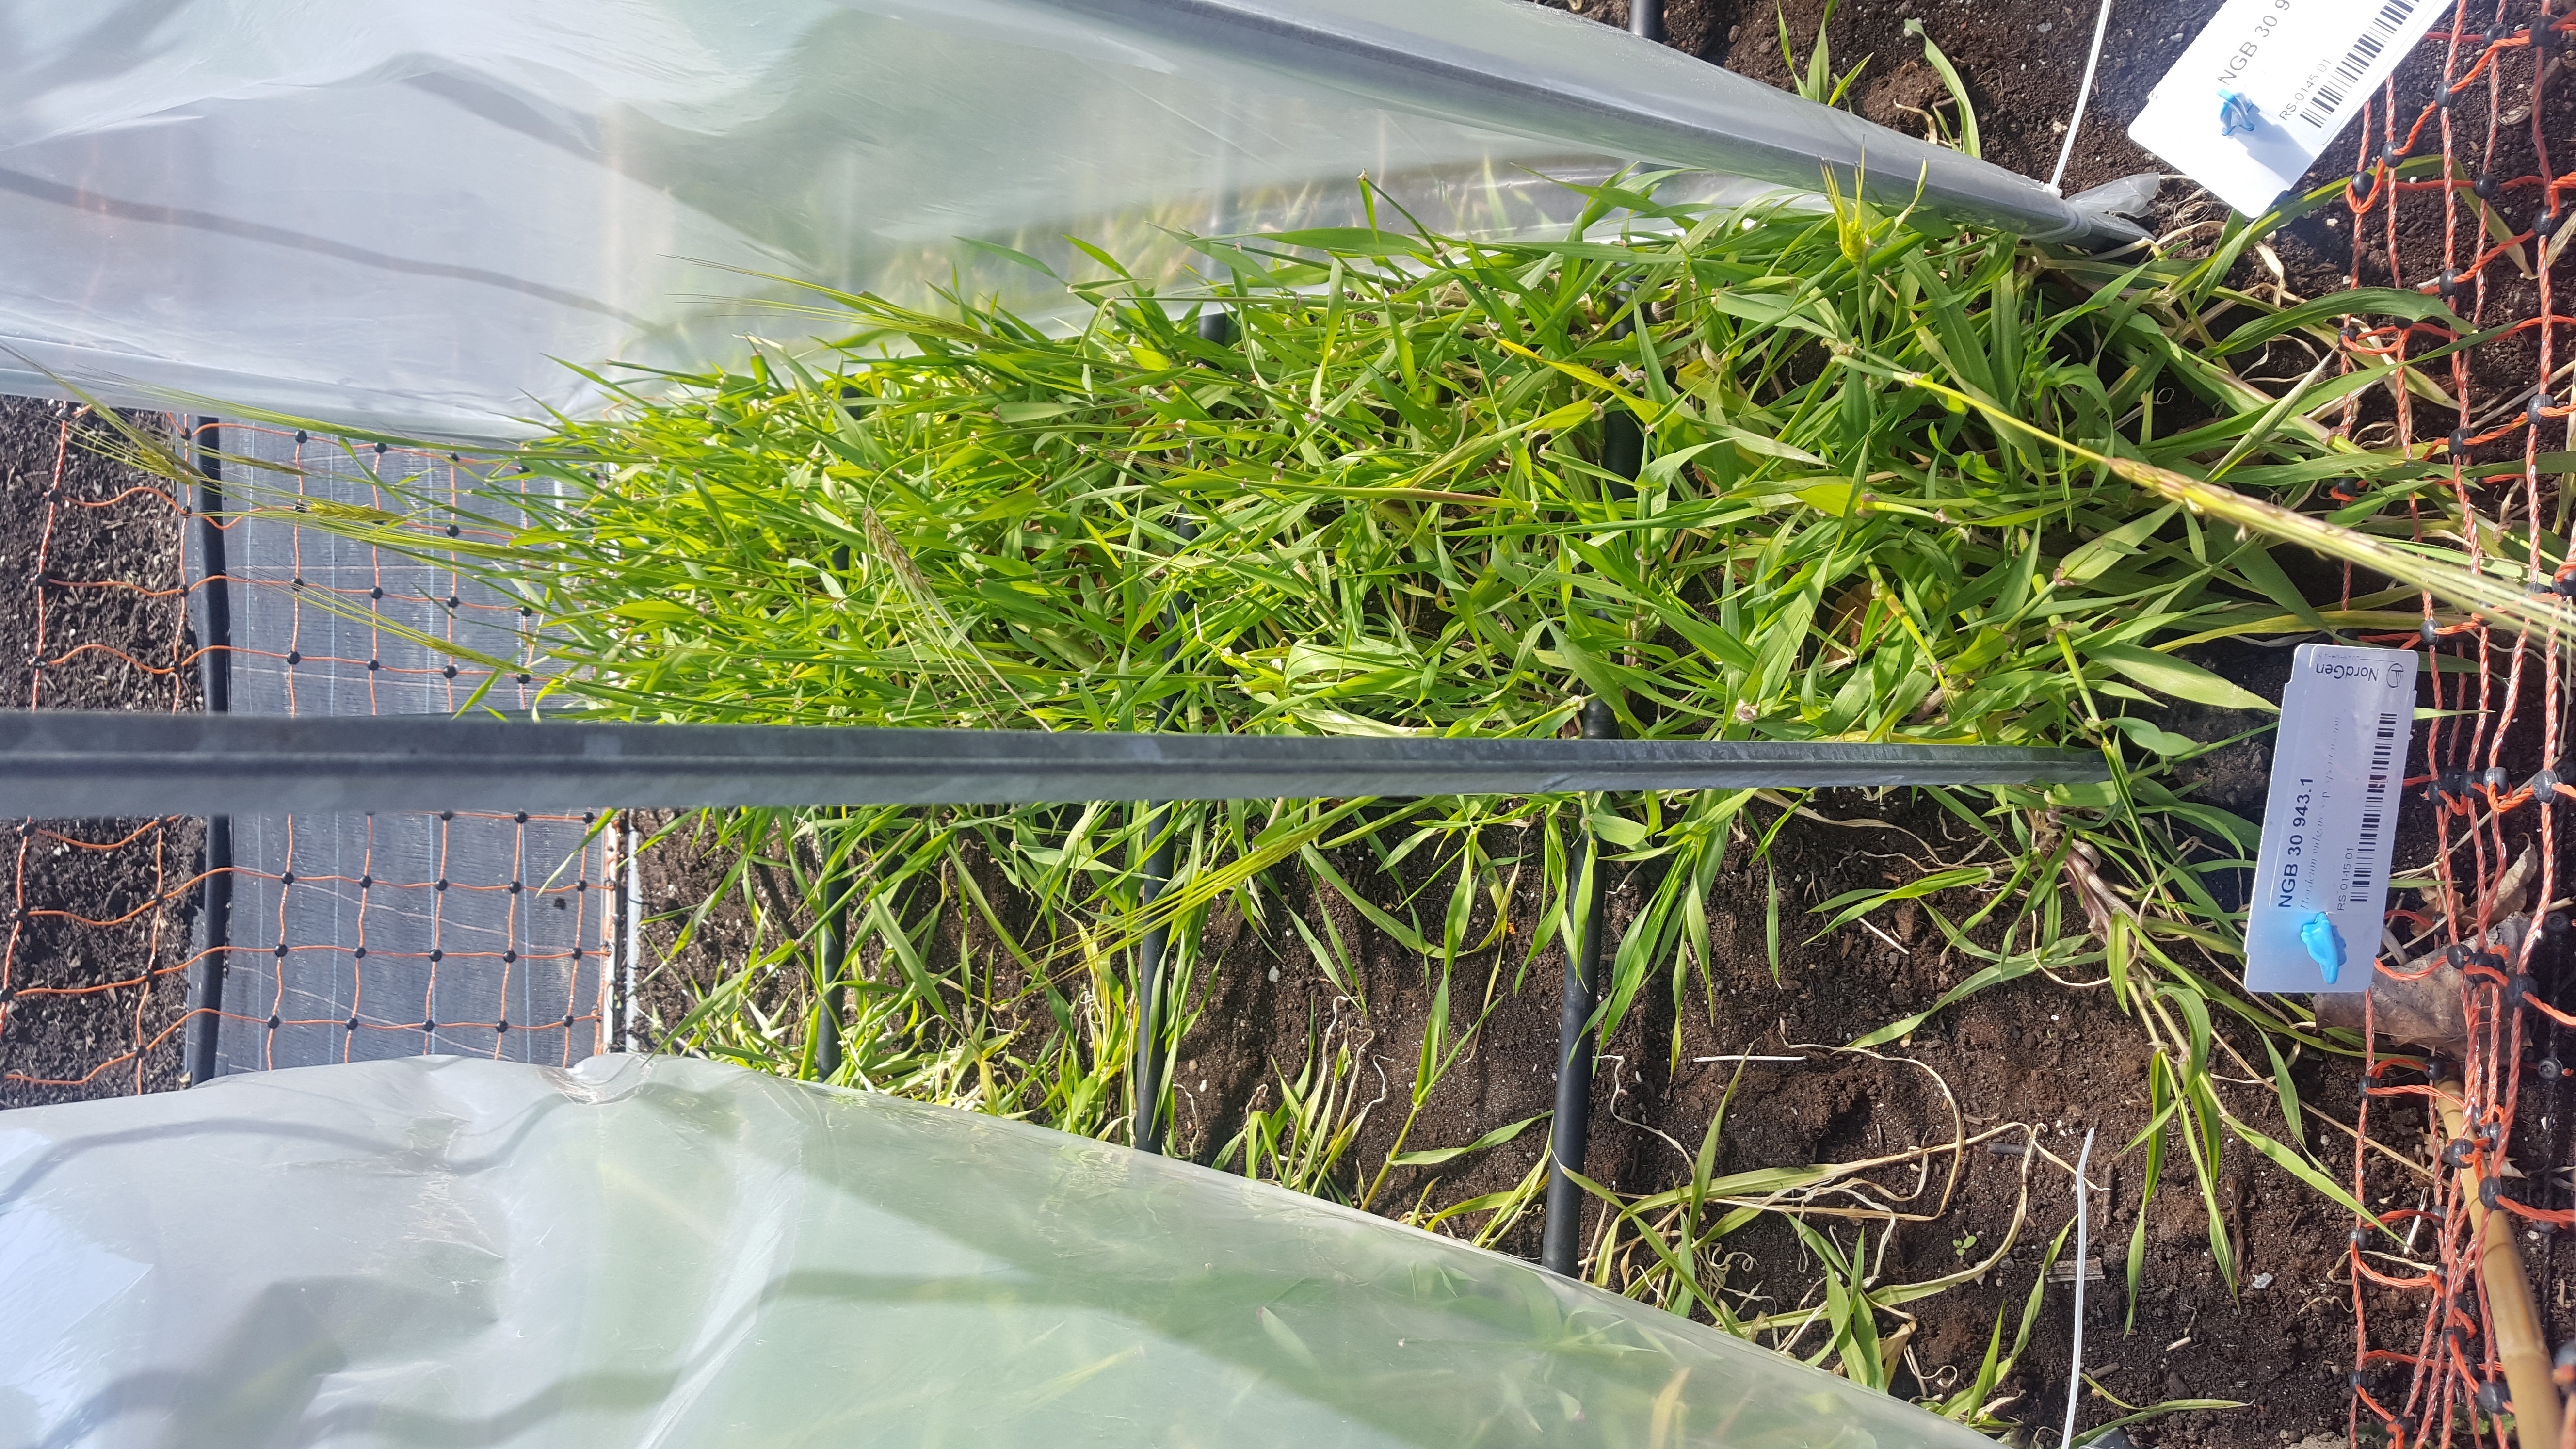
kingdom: Plantae
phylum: Tracheophyta
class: Liliopsida
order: Poales
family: Poaceae
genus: Hordeum
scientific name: Hordeum spontaneum
